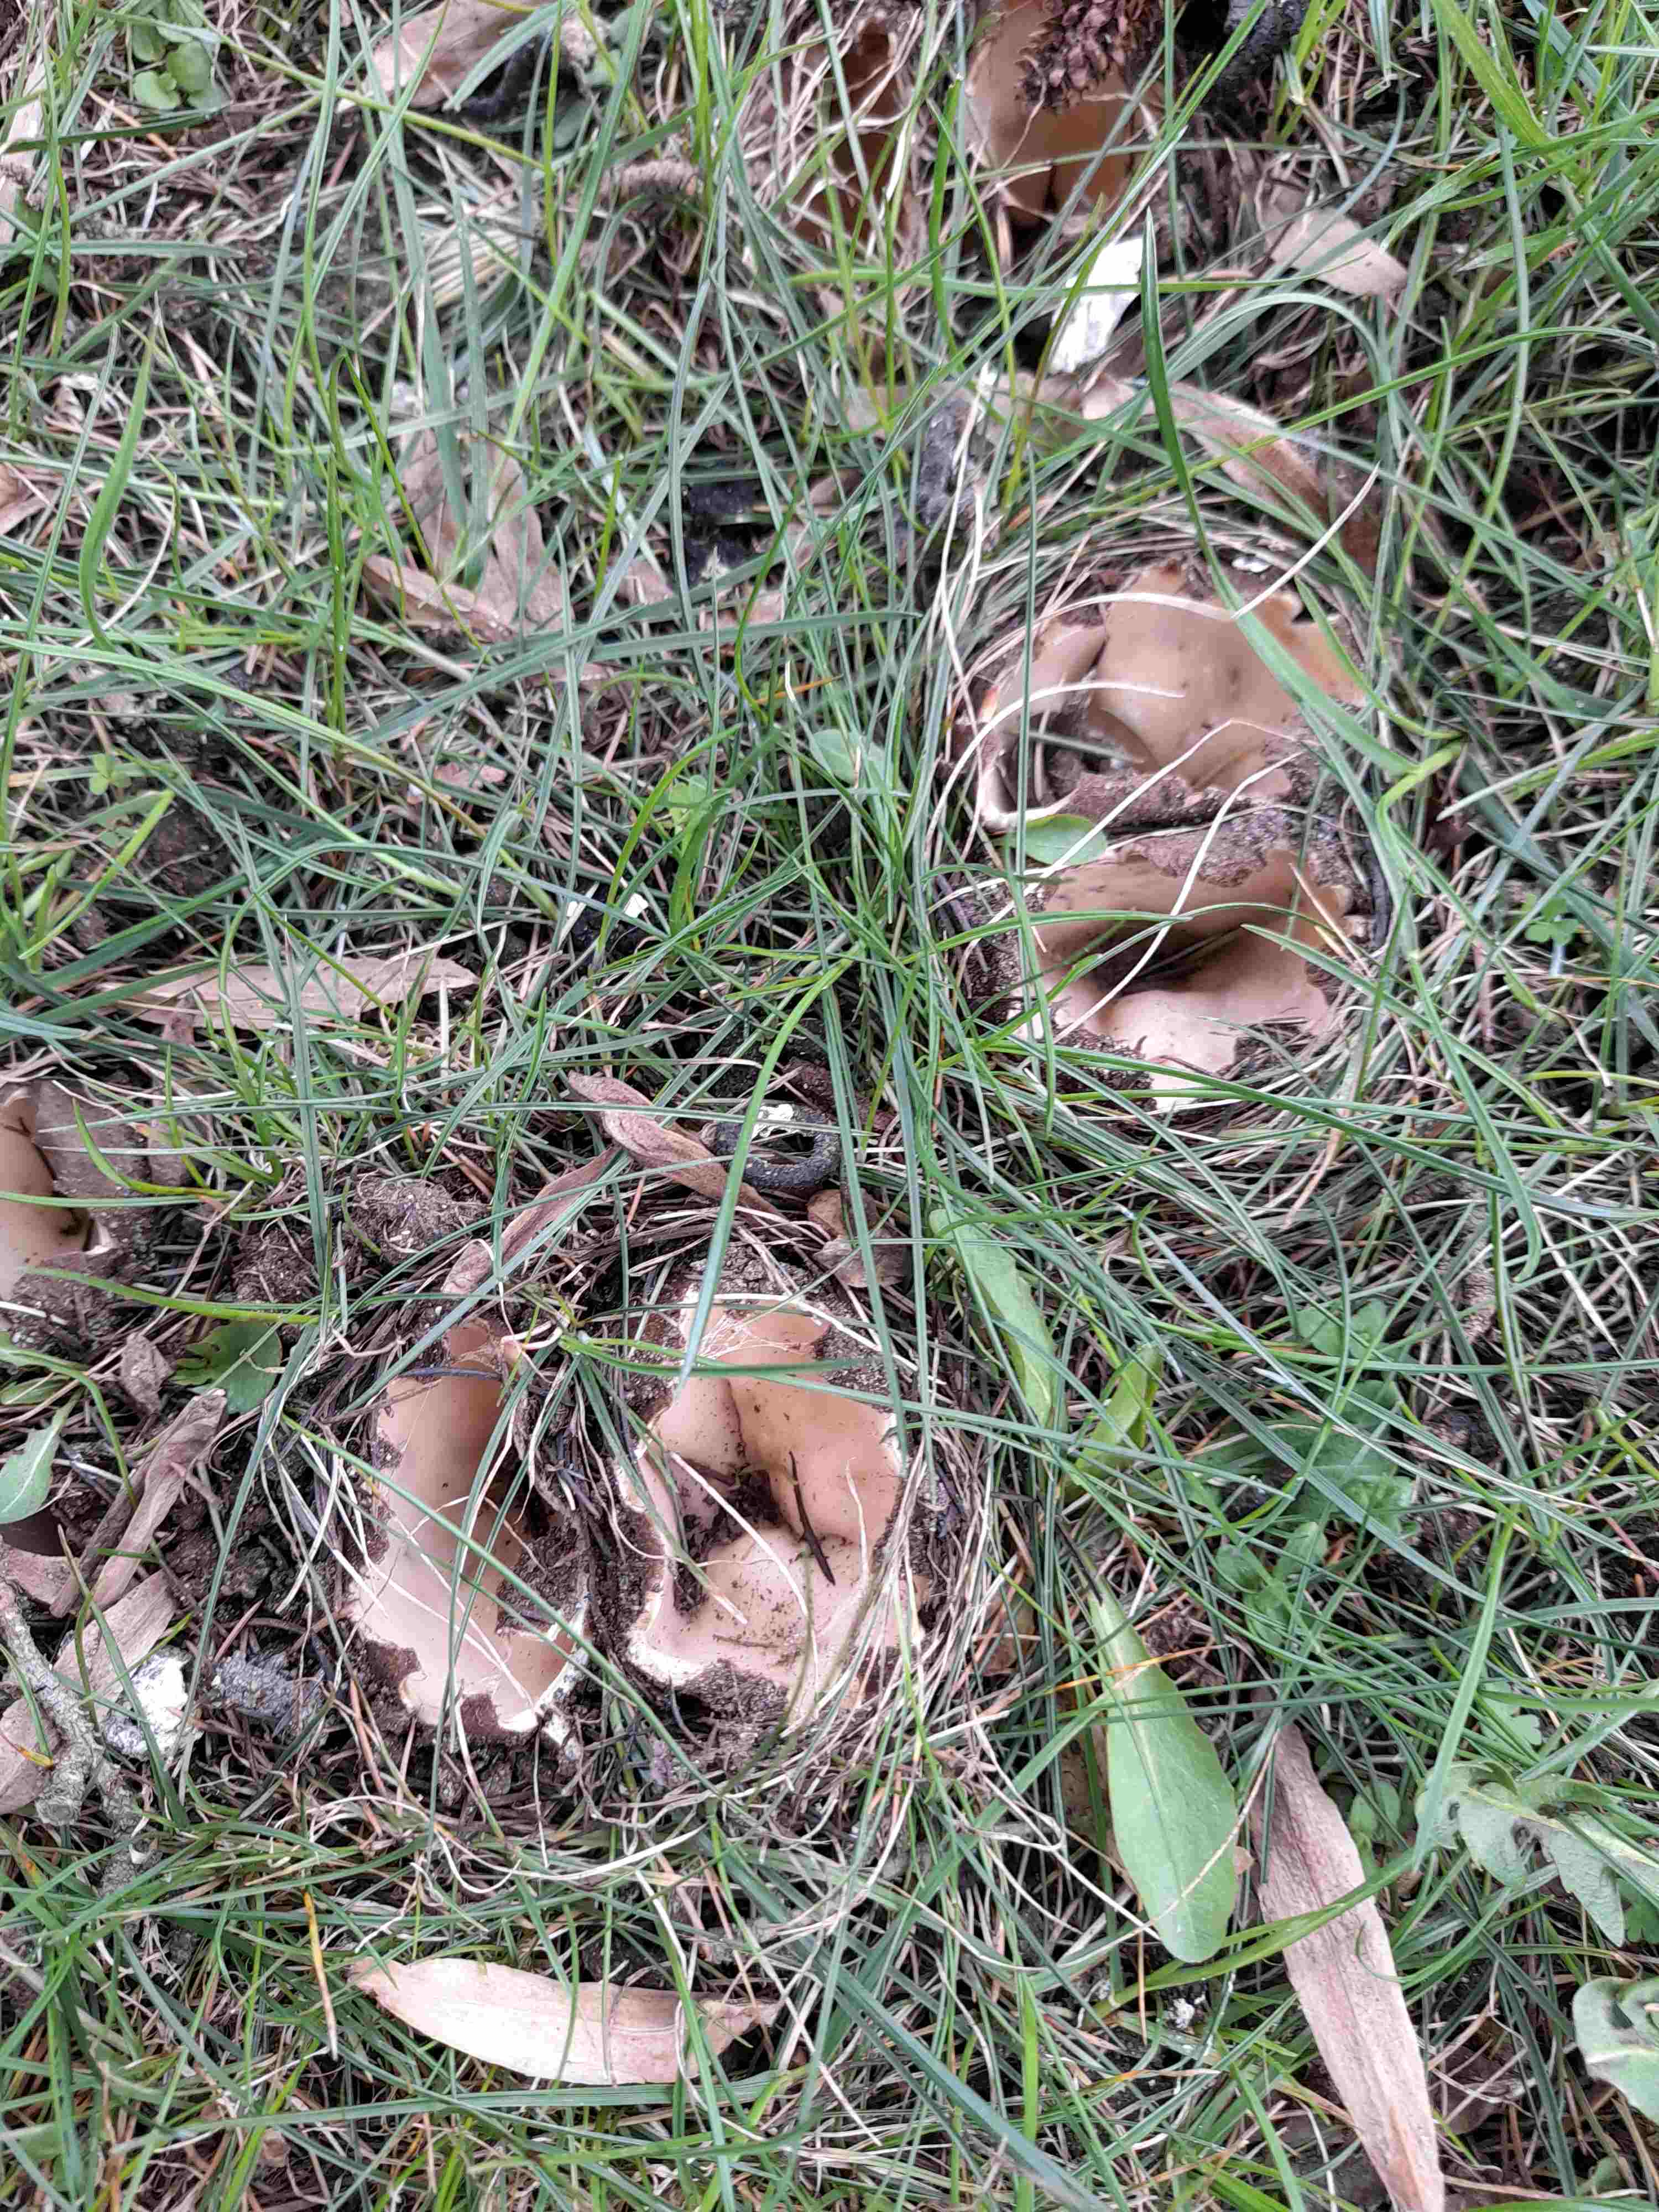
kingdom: Fungi
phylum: Ascomycota
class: Pezizomycetes
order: Pezizales
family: Pyronemataceae
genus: Geopora
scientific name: Geopora sumneriana
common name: vår-jordbæger
